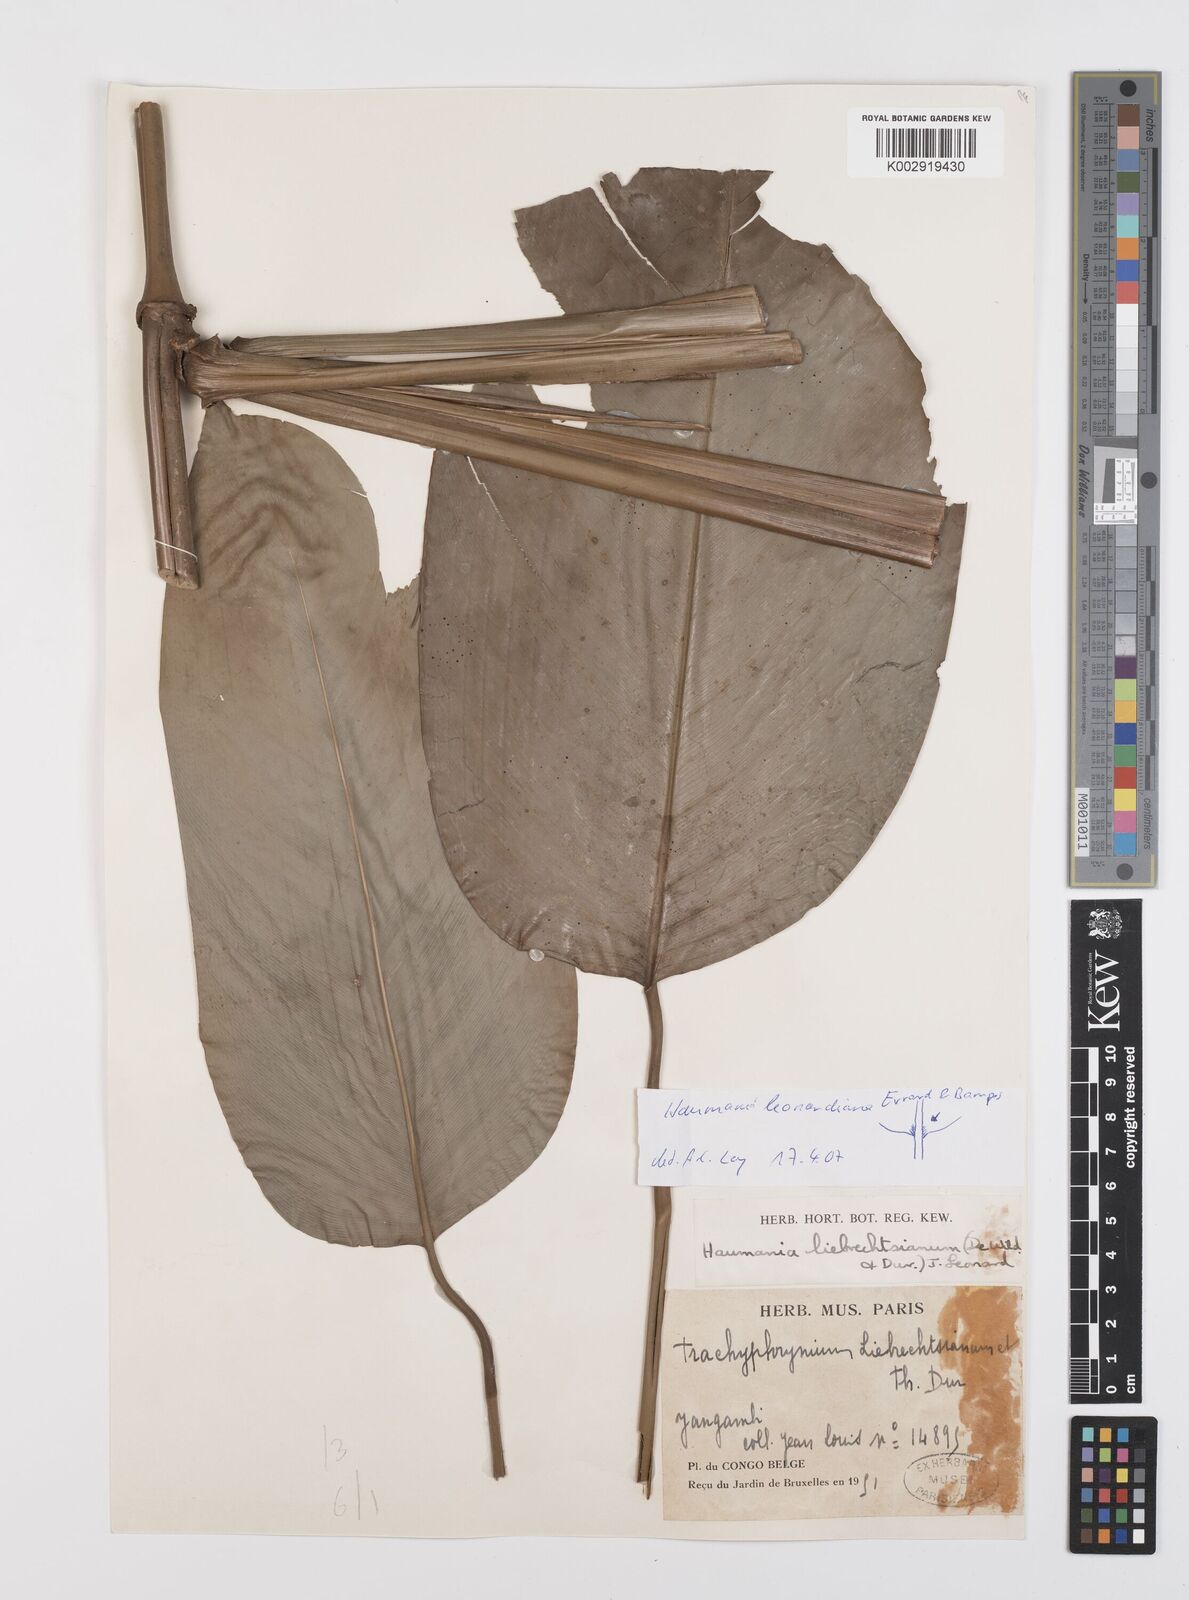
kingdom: Plantae
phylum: Tracheophyta
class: Liliopsida
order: Zingiberales
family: Marantaceae
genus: Haumania
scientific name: Haumania leonardiana
